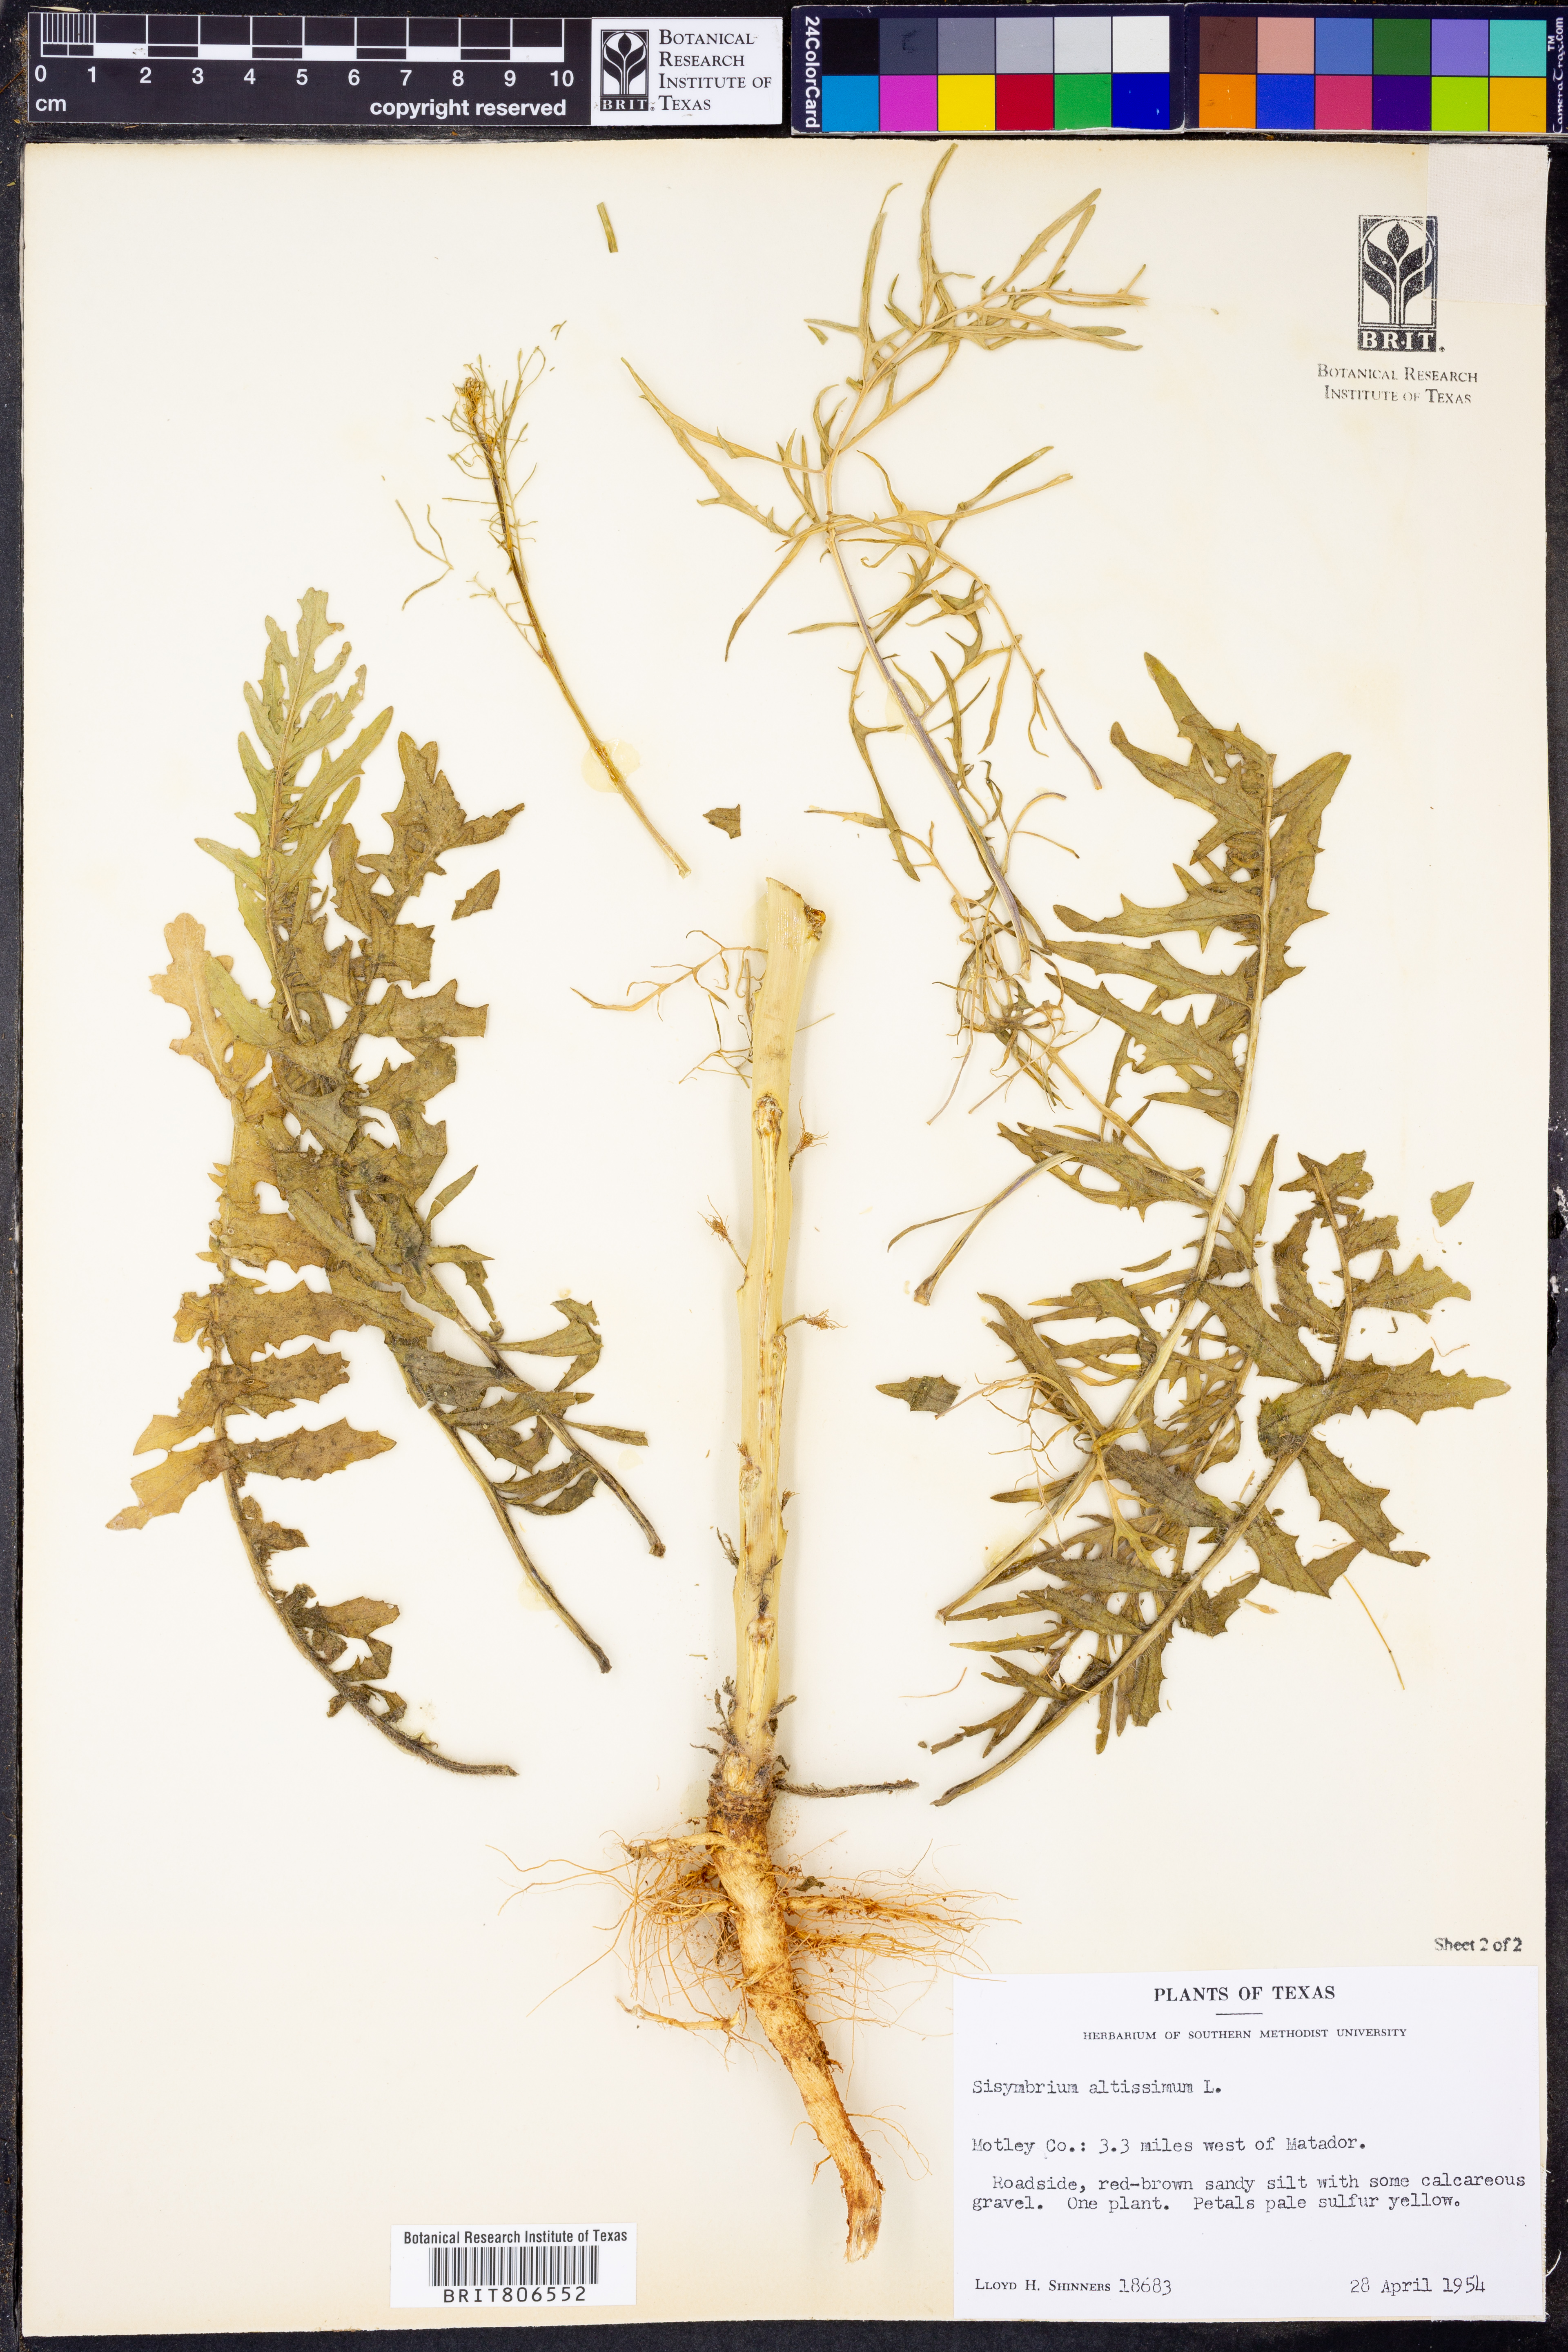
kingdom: Plantae
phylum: Tracheophyta
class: Magnoliopsida
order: Brassicales
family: Brassicaceae
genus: Sisymbrium
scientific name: Sisymbrium altissimum
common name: Tall rocket
